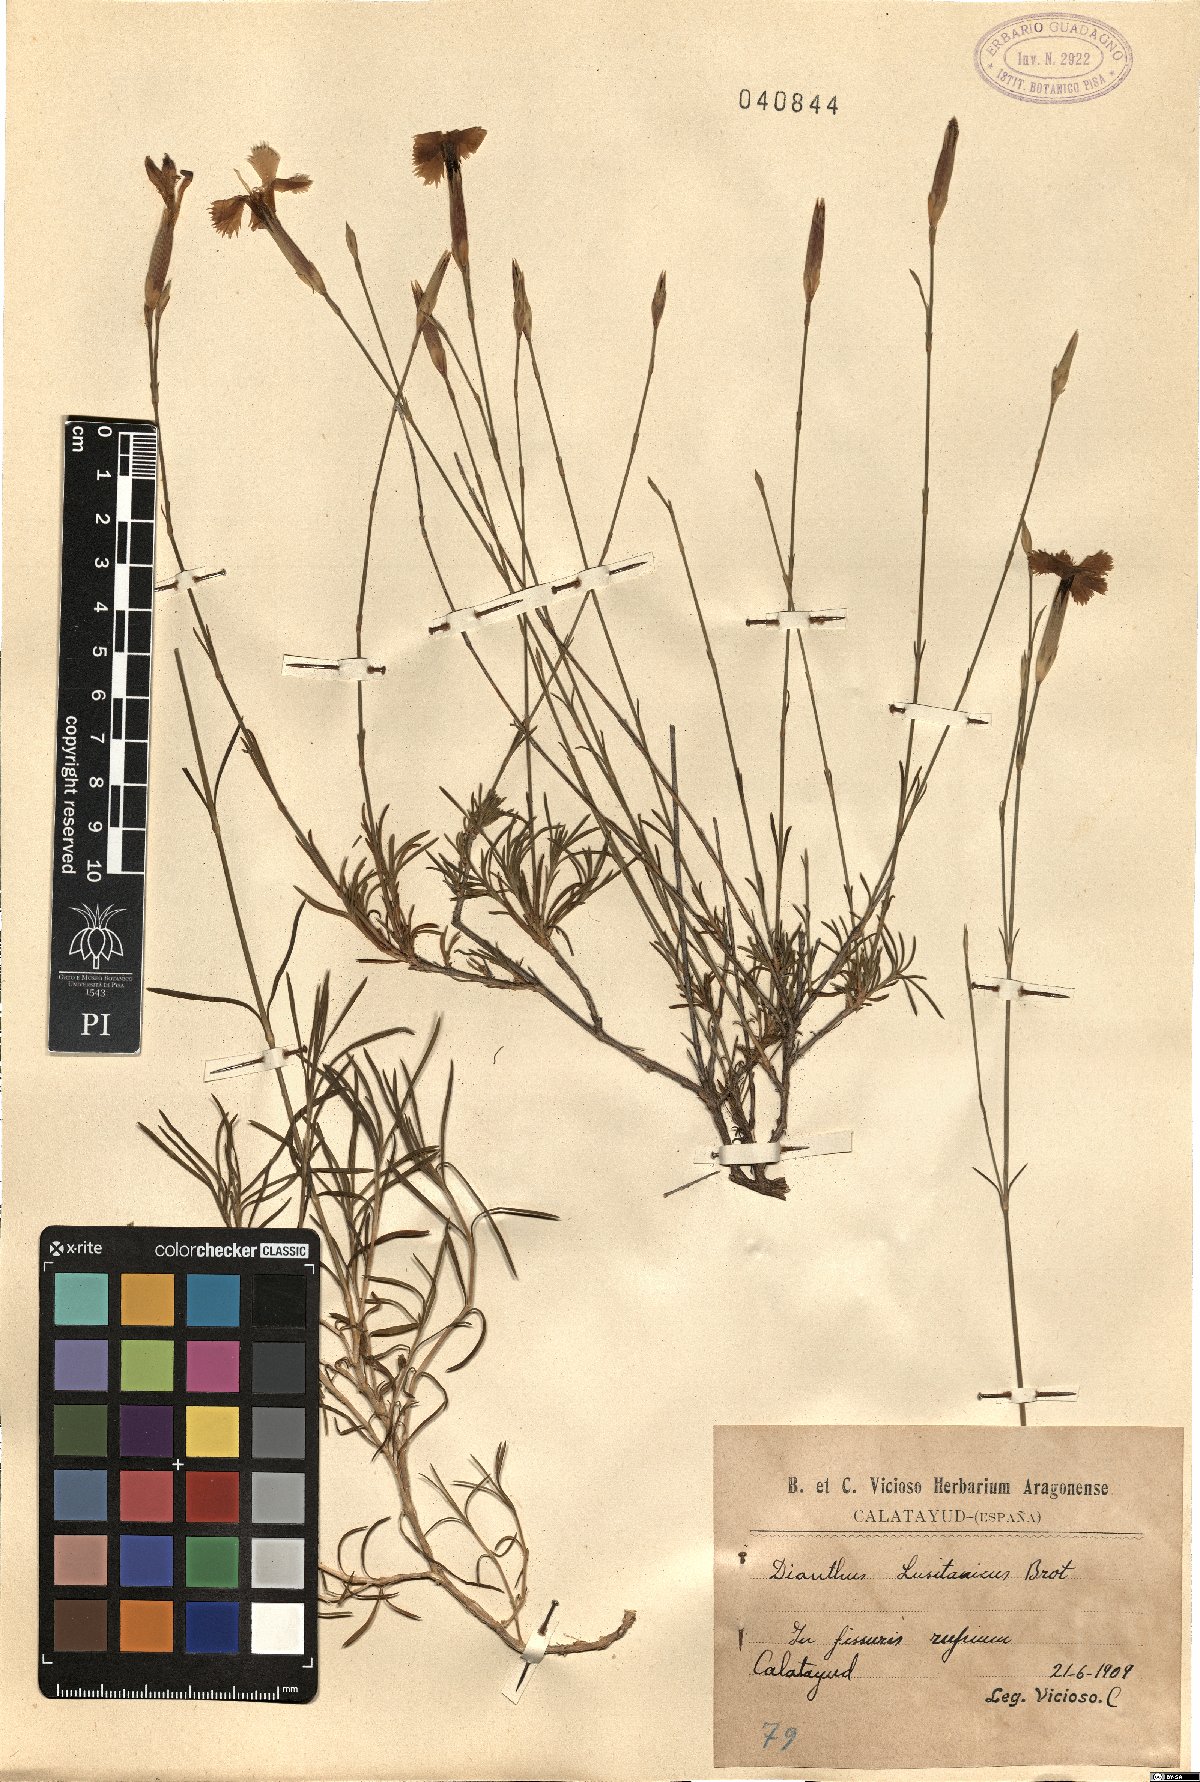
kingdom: Plantae
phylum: Tracheophyta
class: Magnoliopsida
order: Caryophyllales
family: Caryophyllaceae
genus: Dianthus
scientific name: Dianthus lusitanus
